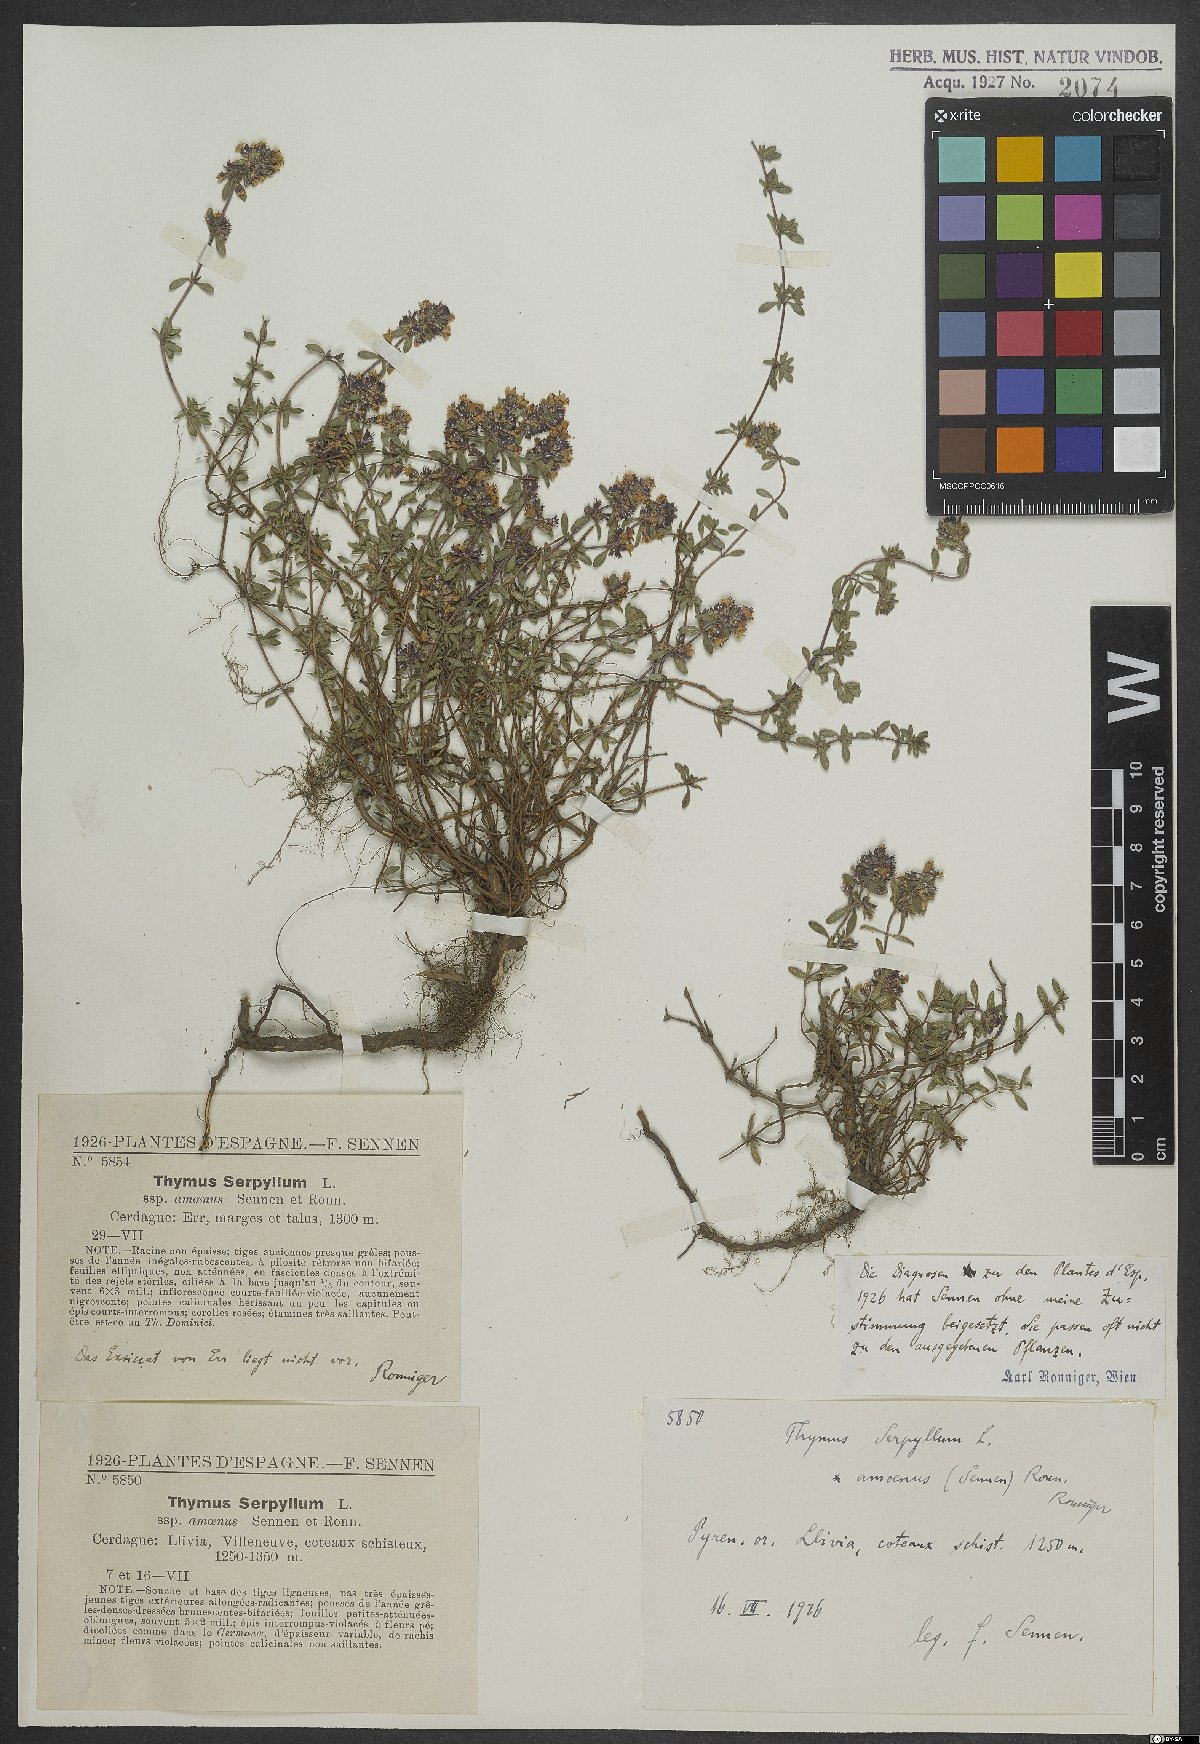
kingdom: Plantae
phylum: Tracheophyta
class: Magnoliopsida
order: Lamiales
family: Lamiaceae
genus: Thymus
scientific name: Thymus serpyllum
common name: Breckland thyme
